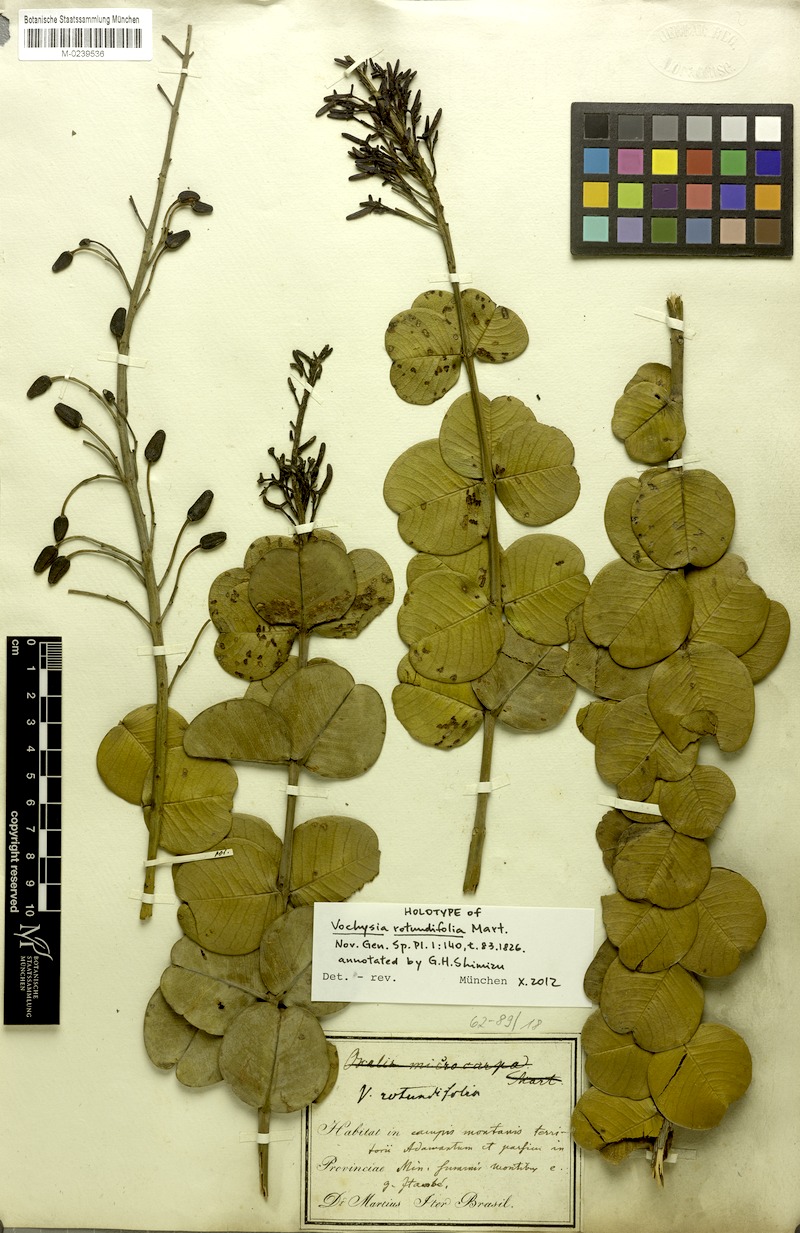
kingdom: Plantae
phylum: Tracheophyta
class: Magnoliopsida
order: Myrtales
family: Vochysiaceae
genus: Vochysia
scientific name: Vochysia rotundifolia
